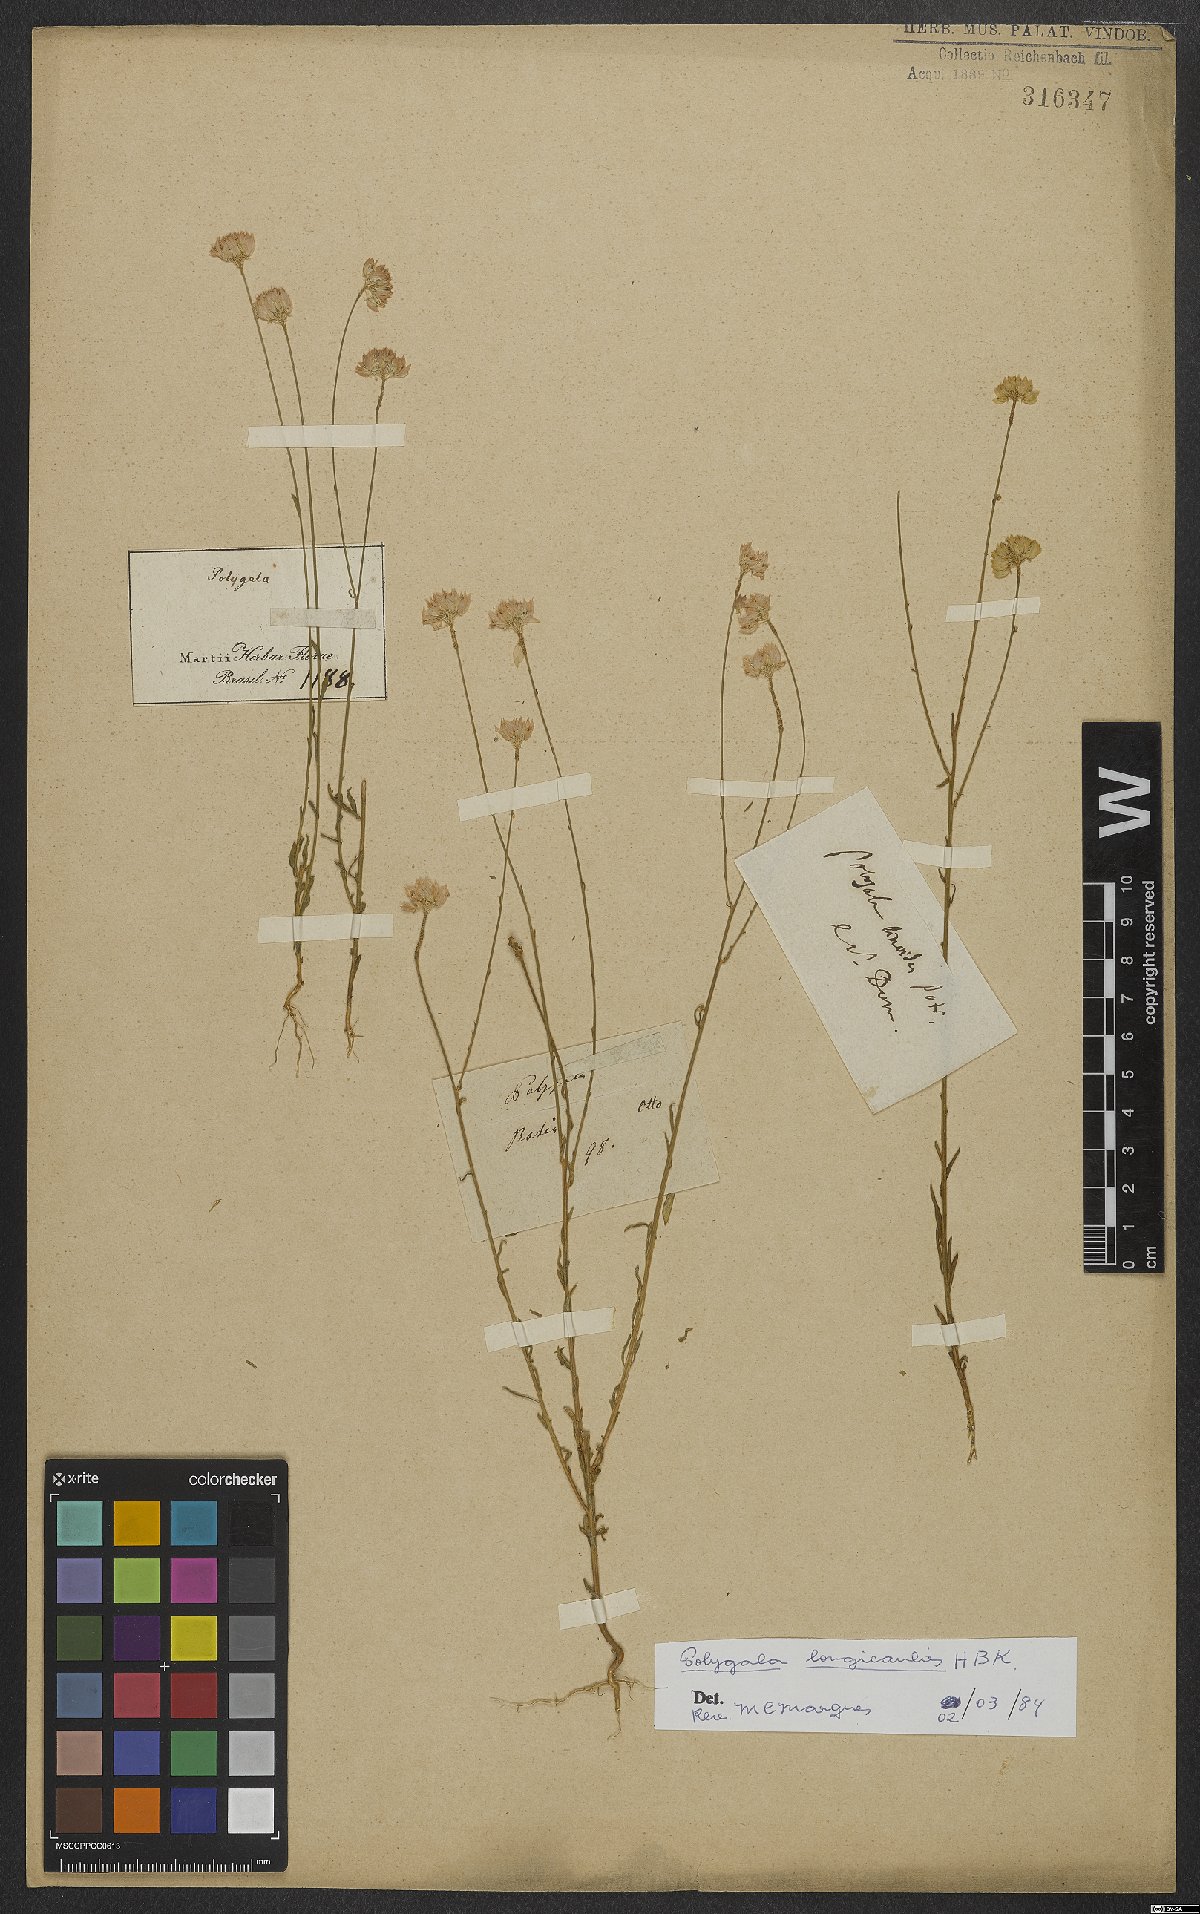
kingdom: Plantae
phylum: Tracheophyta
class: Magnoliopsida
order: Fabales
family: Polygalaceae
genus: Polygala
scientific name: Polygala longicaulis
